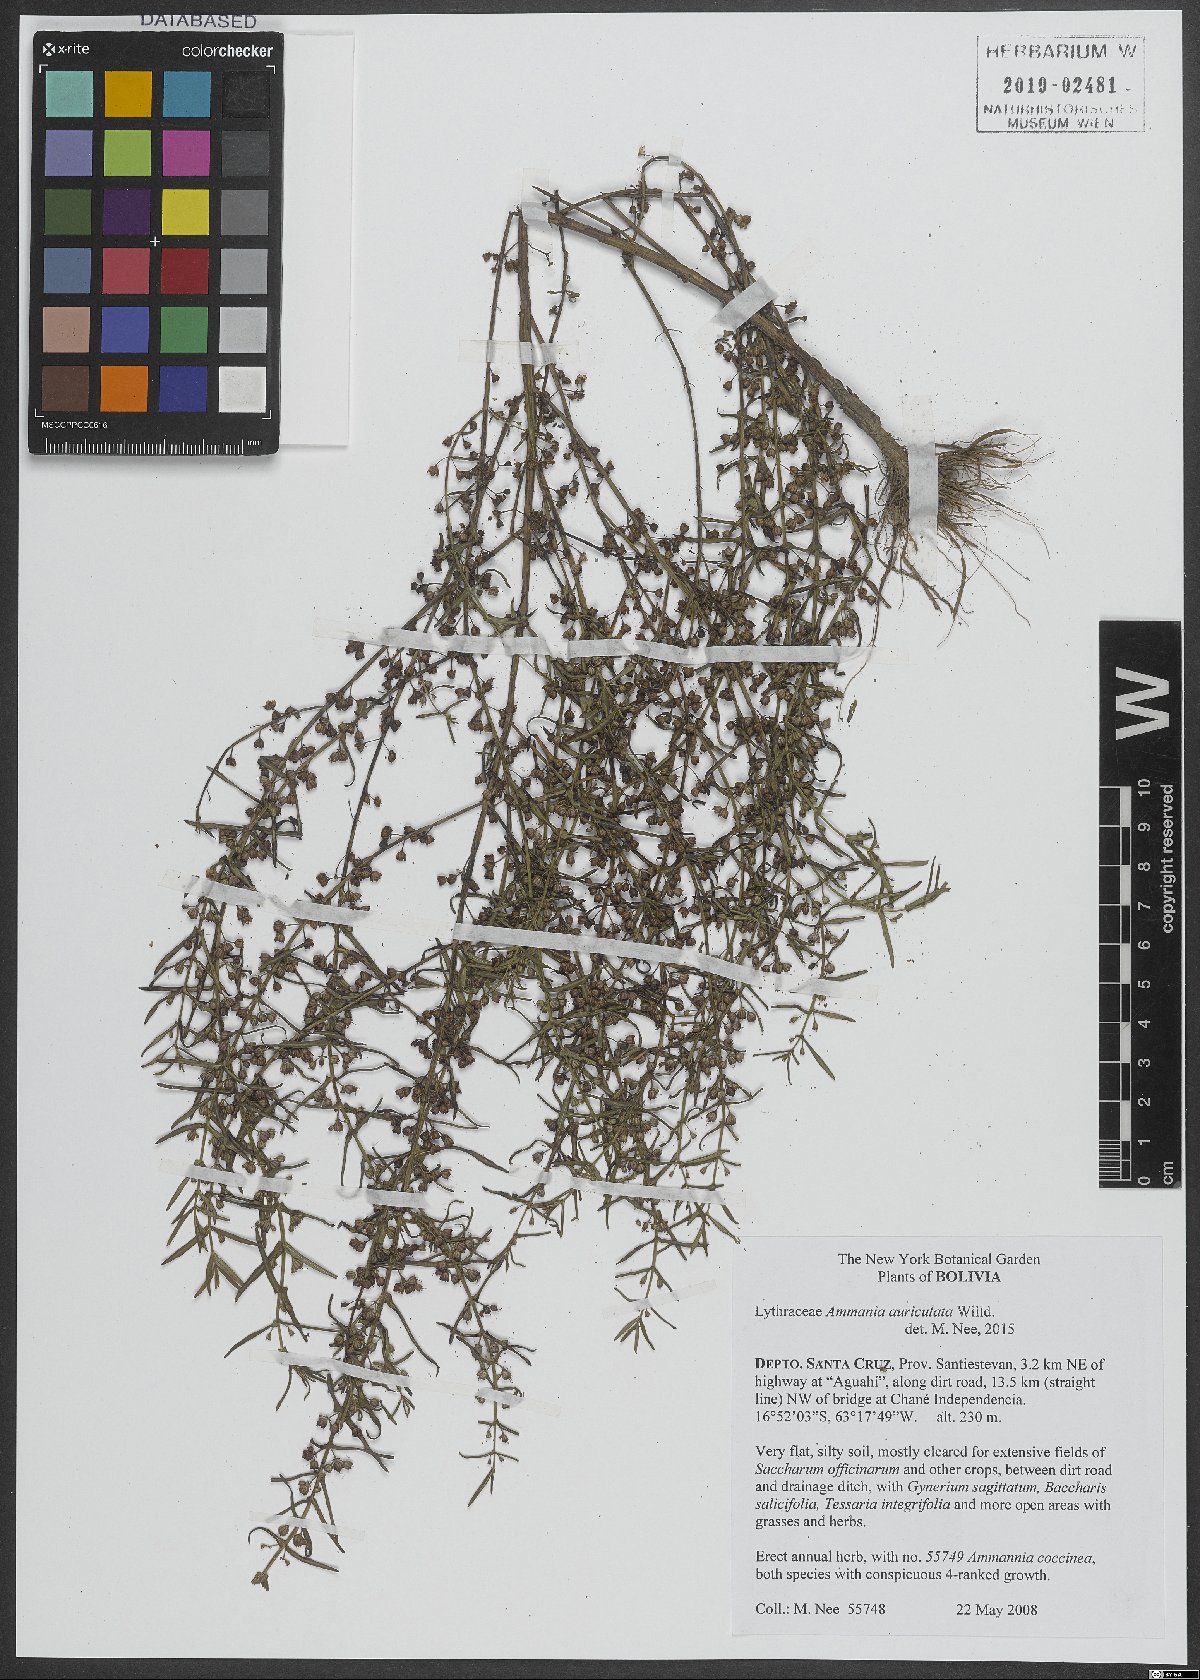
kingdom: Plantae
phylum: Tracheophyta
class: Magnoliopsida
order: Myrtales
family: Lythraceae
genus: Ammannia
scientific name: Ammannia auriculata
